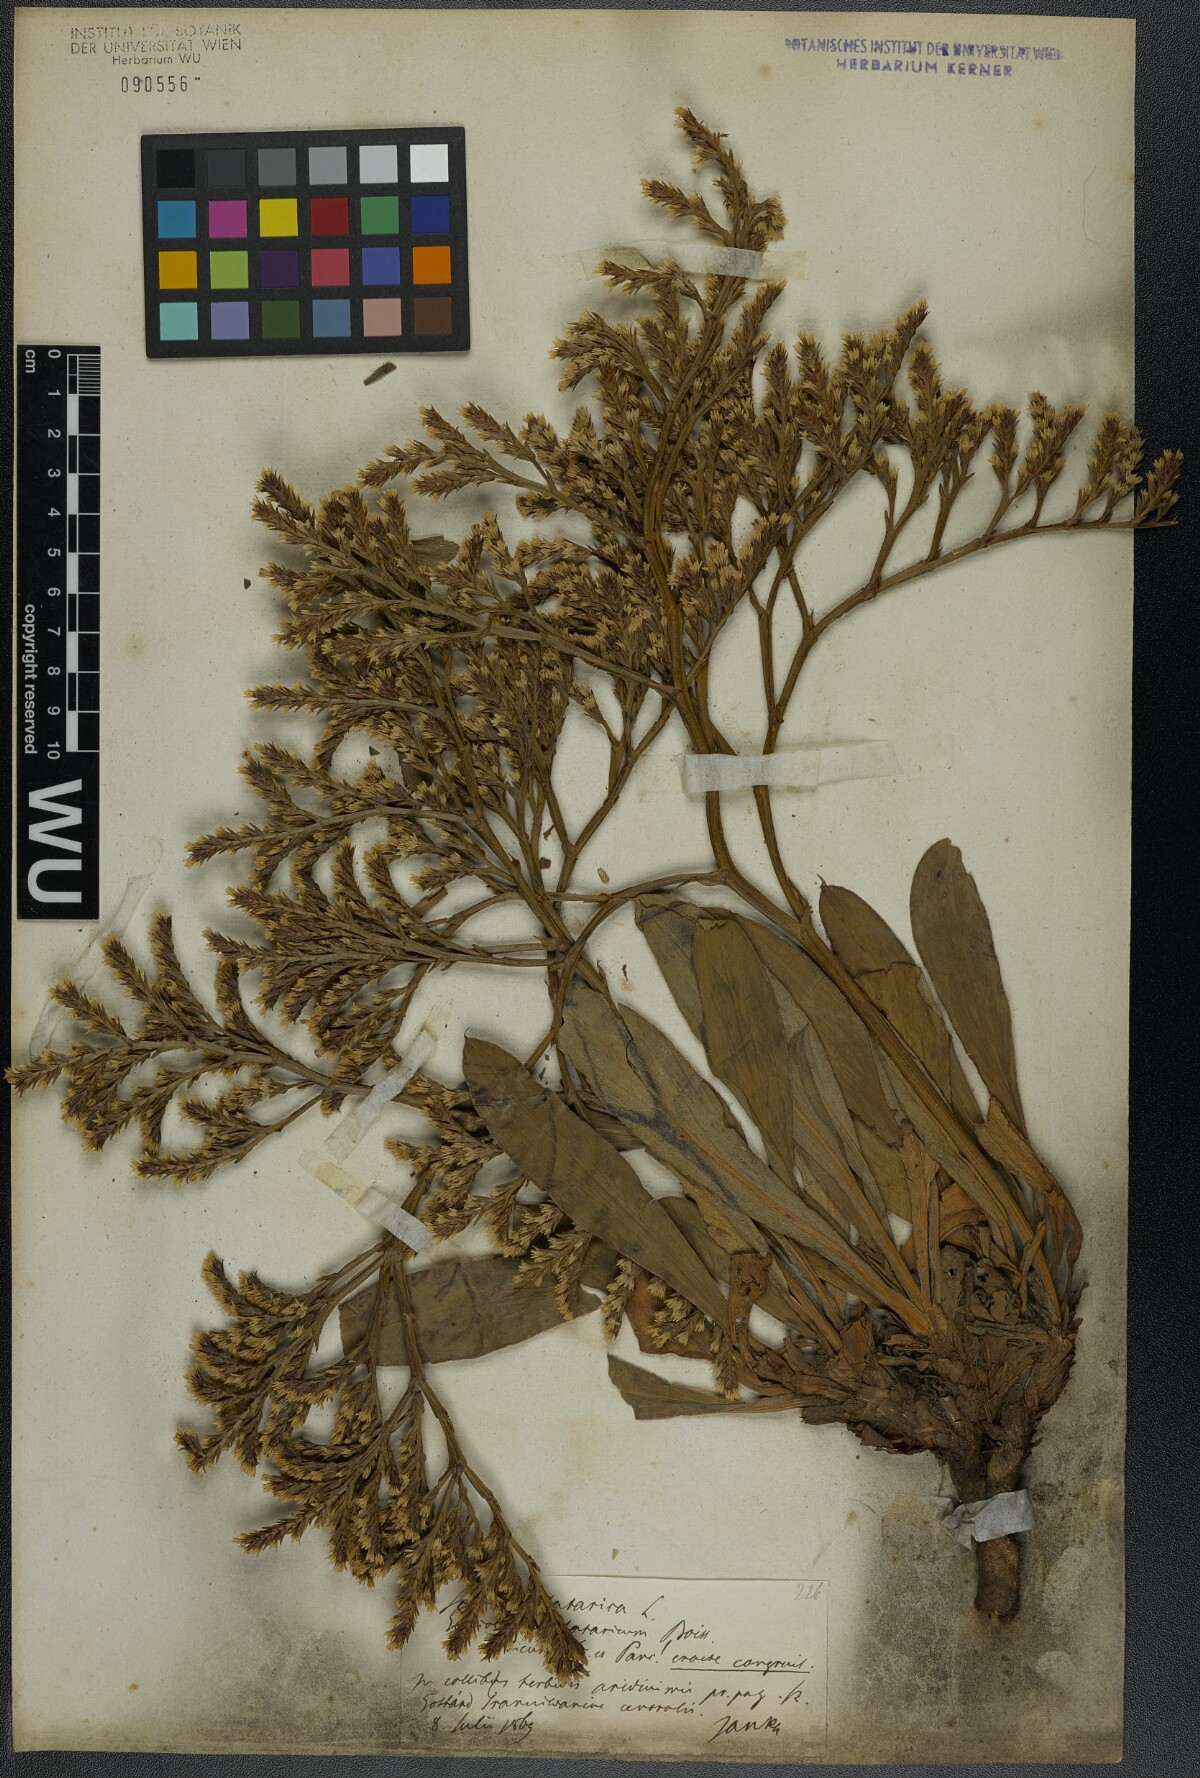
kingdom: Plantae
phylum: Tracheophyta
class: Magnoliopsida
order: Caryophyllales
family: Plumbaginaceae
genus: Goniolimon
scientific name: Goniolimon tataricum
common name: Statice
